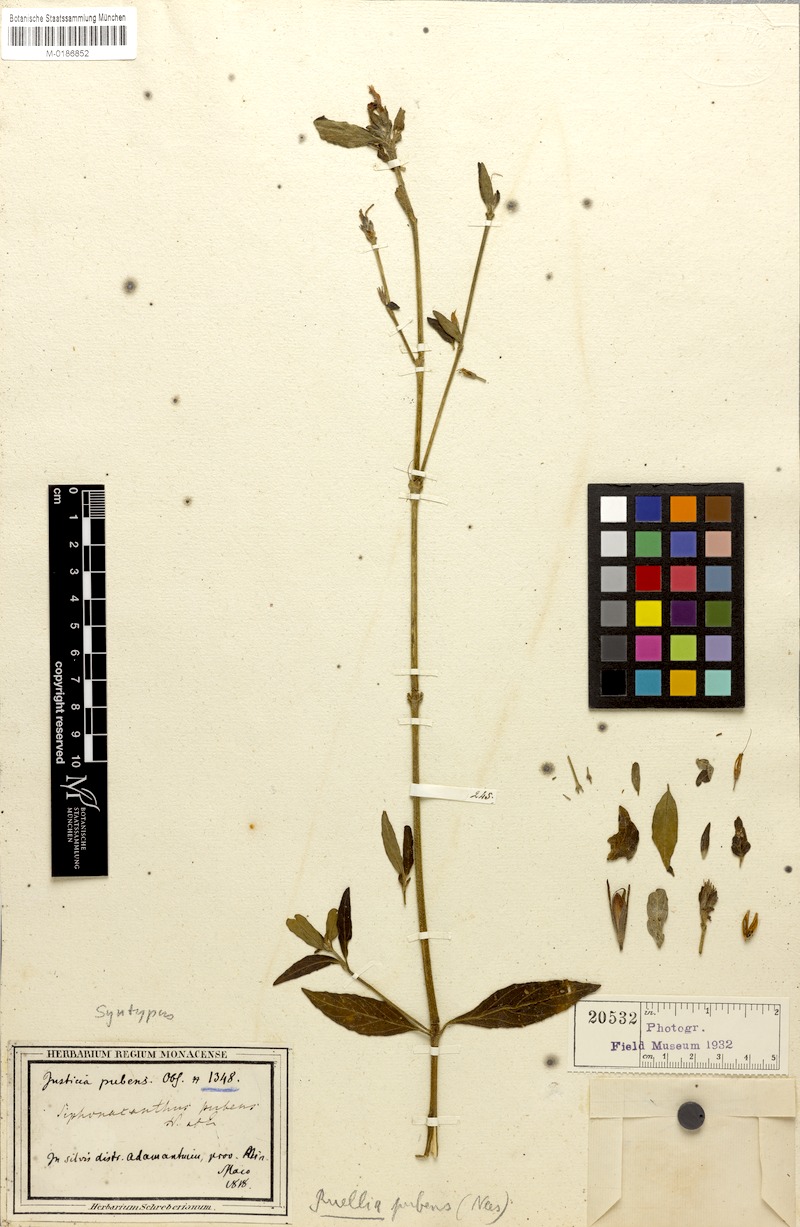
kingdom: Plantae
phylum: Tracheophyta
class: Magnoliopsida
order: Lamiales
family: Acanthaceae
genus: Ruellia
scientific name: Ruellia pubens
